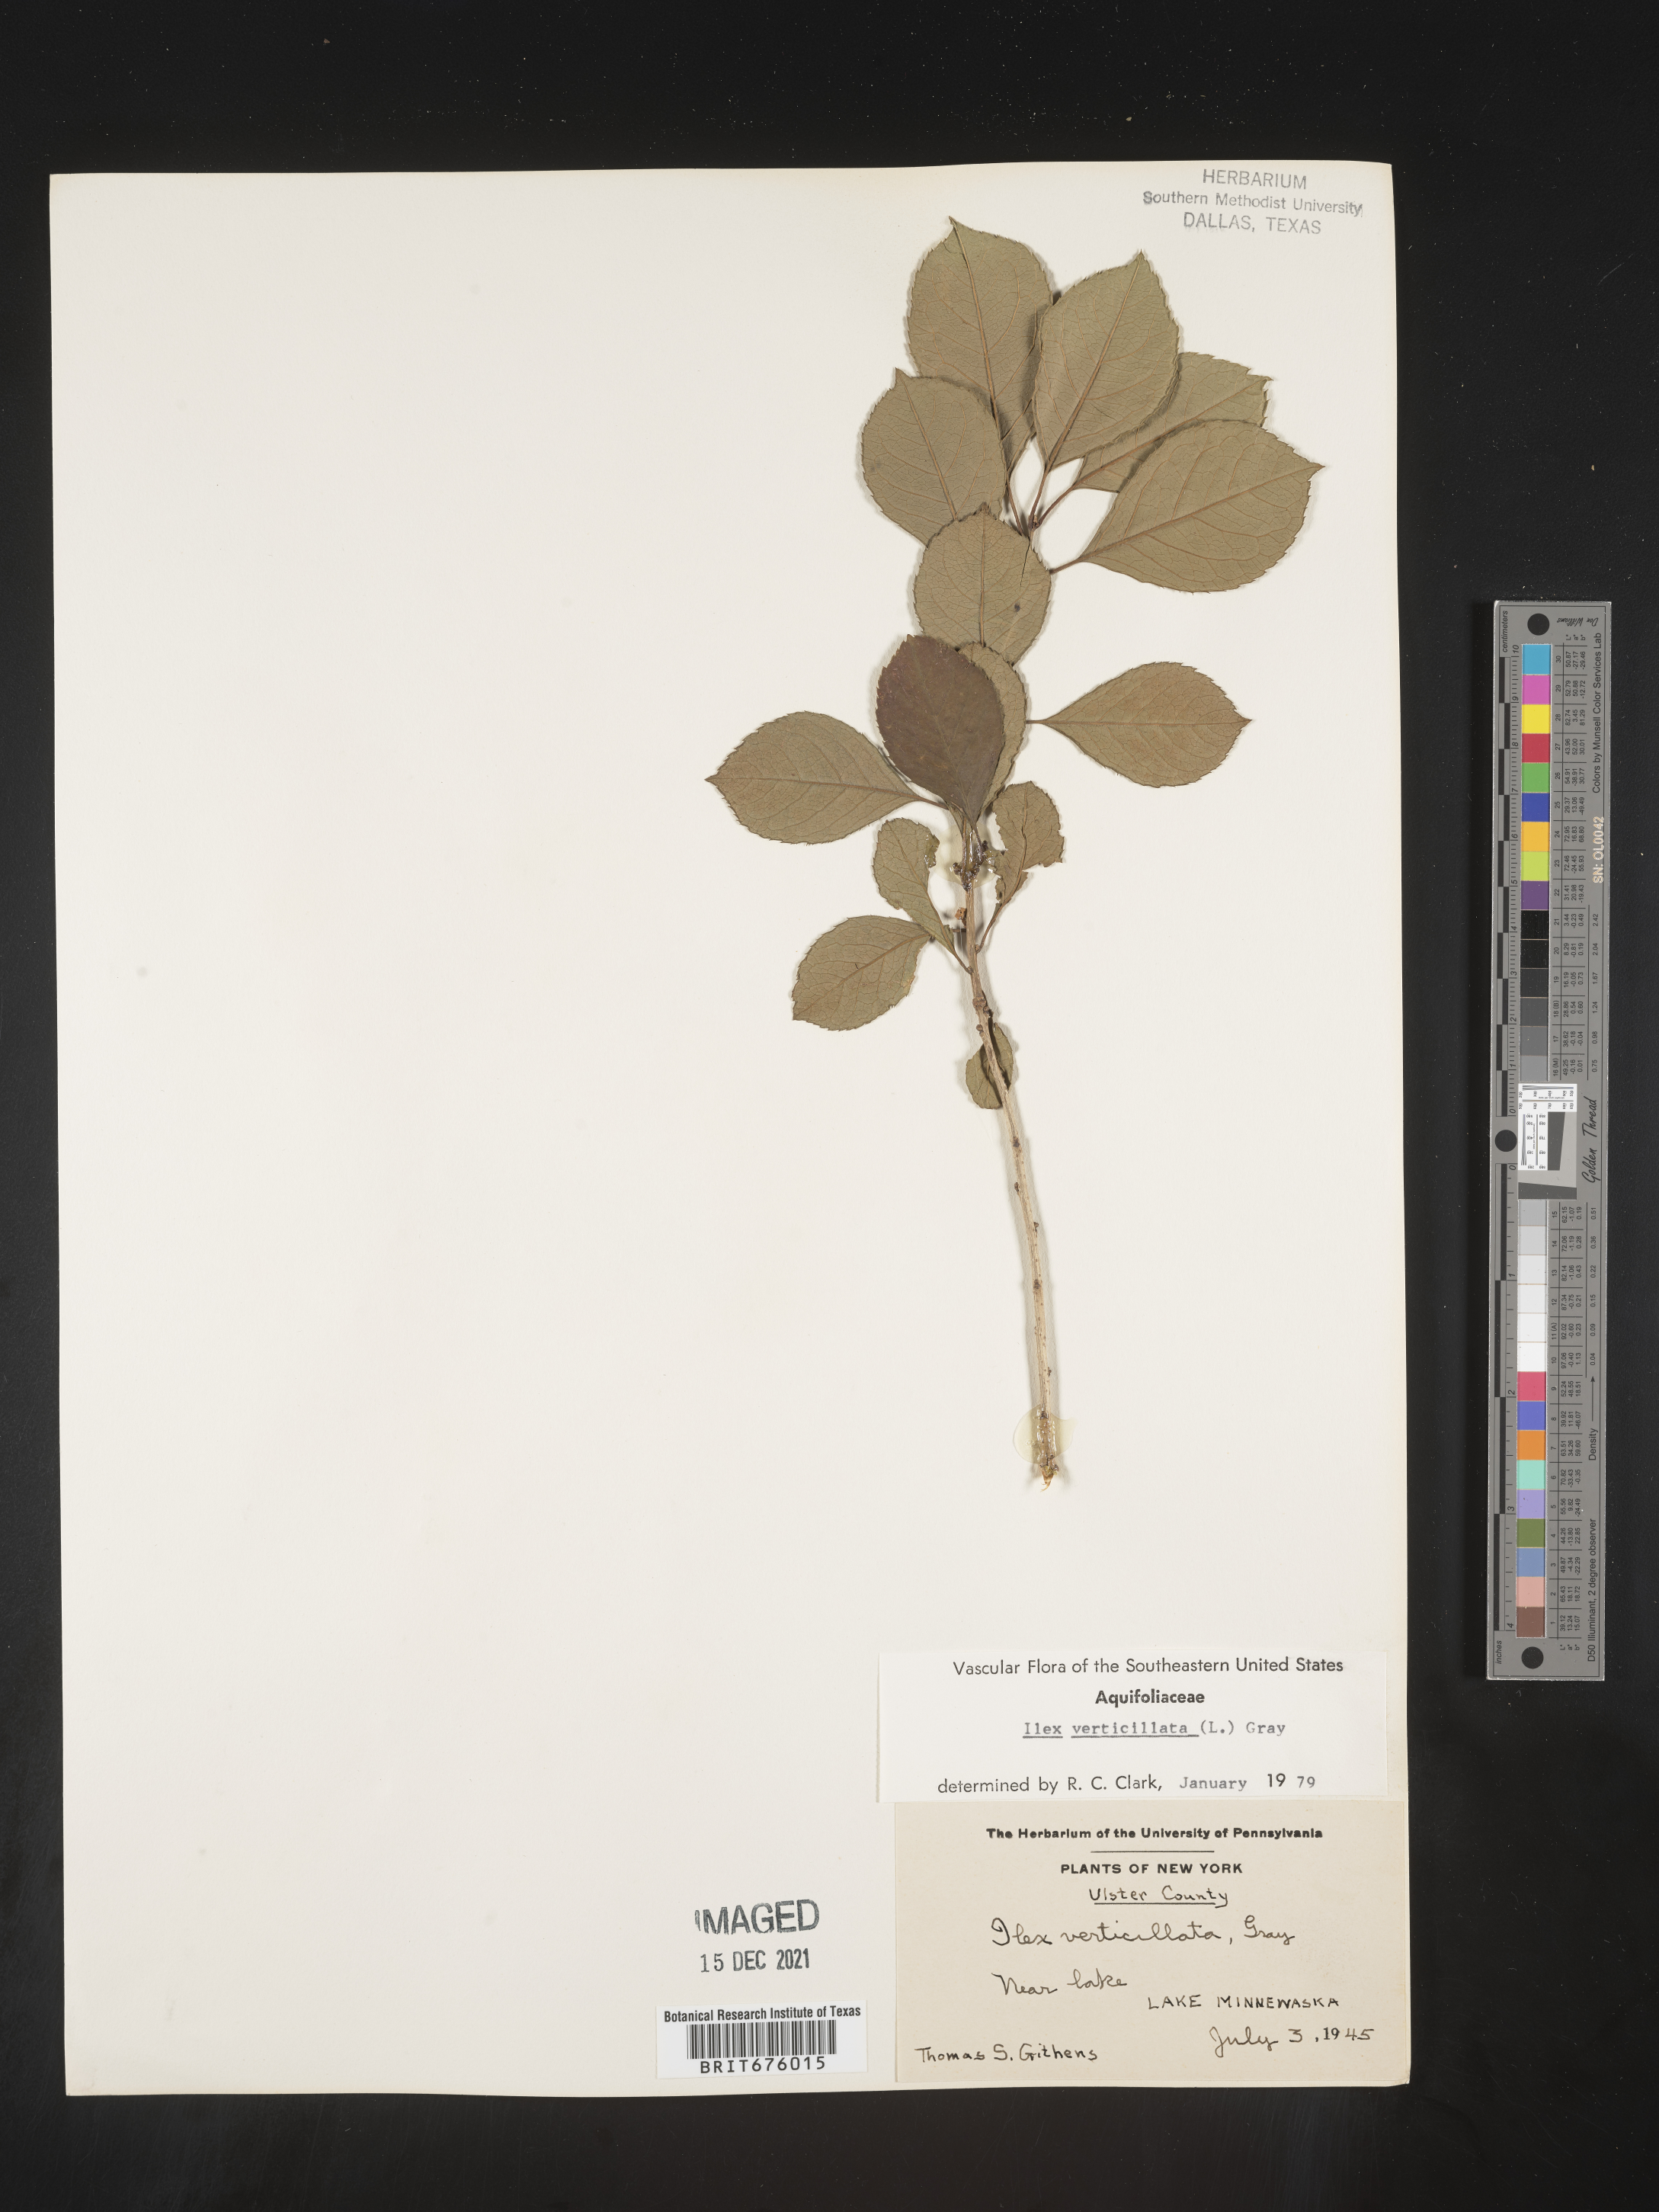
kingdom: Plantae
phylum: Tracheophyta
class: Magnoliopsida
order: Aquifoliales
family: Aquifoliaceae
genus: Ilex
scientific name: Ilex verticillata
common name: Virginia winterberry
